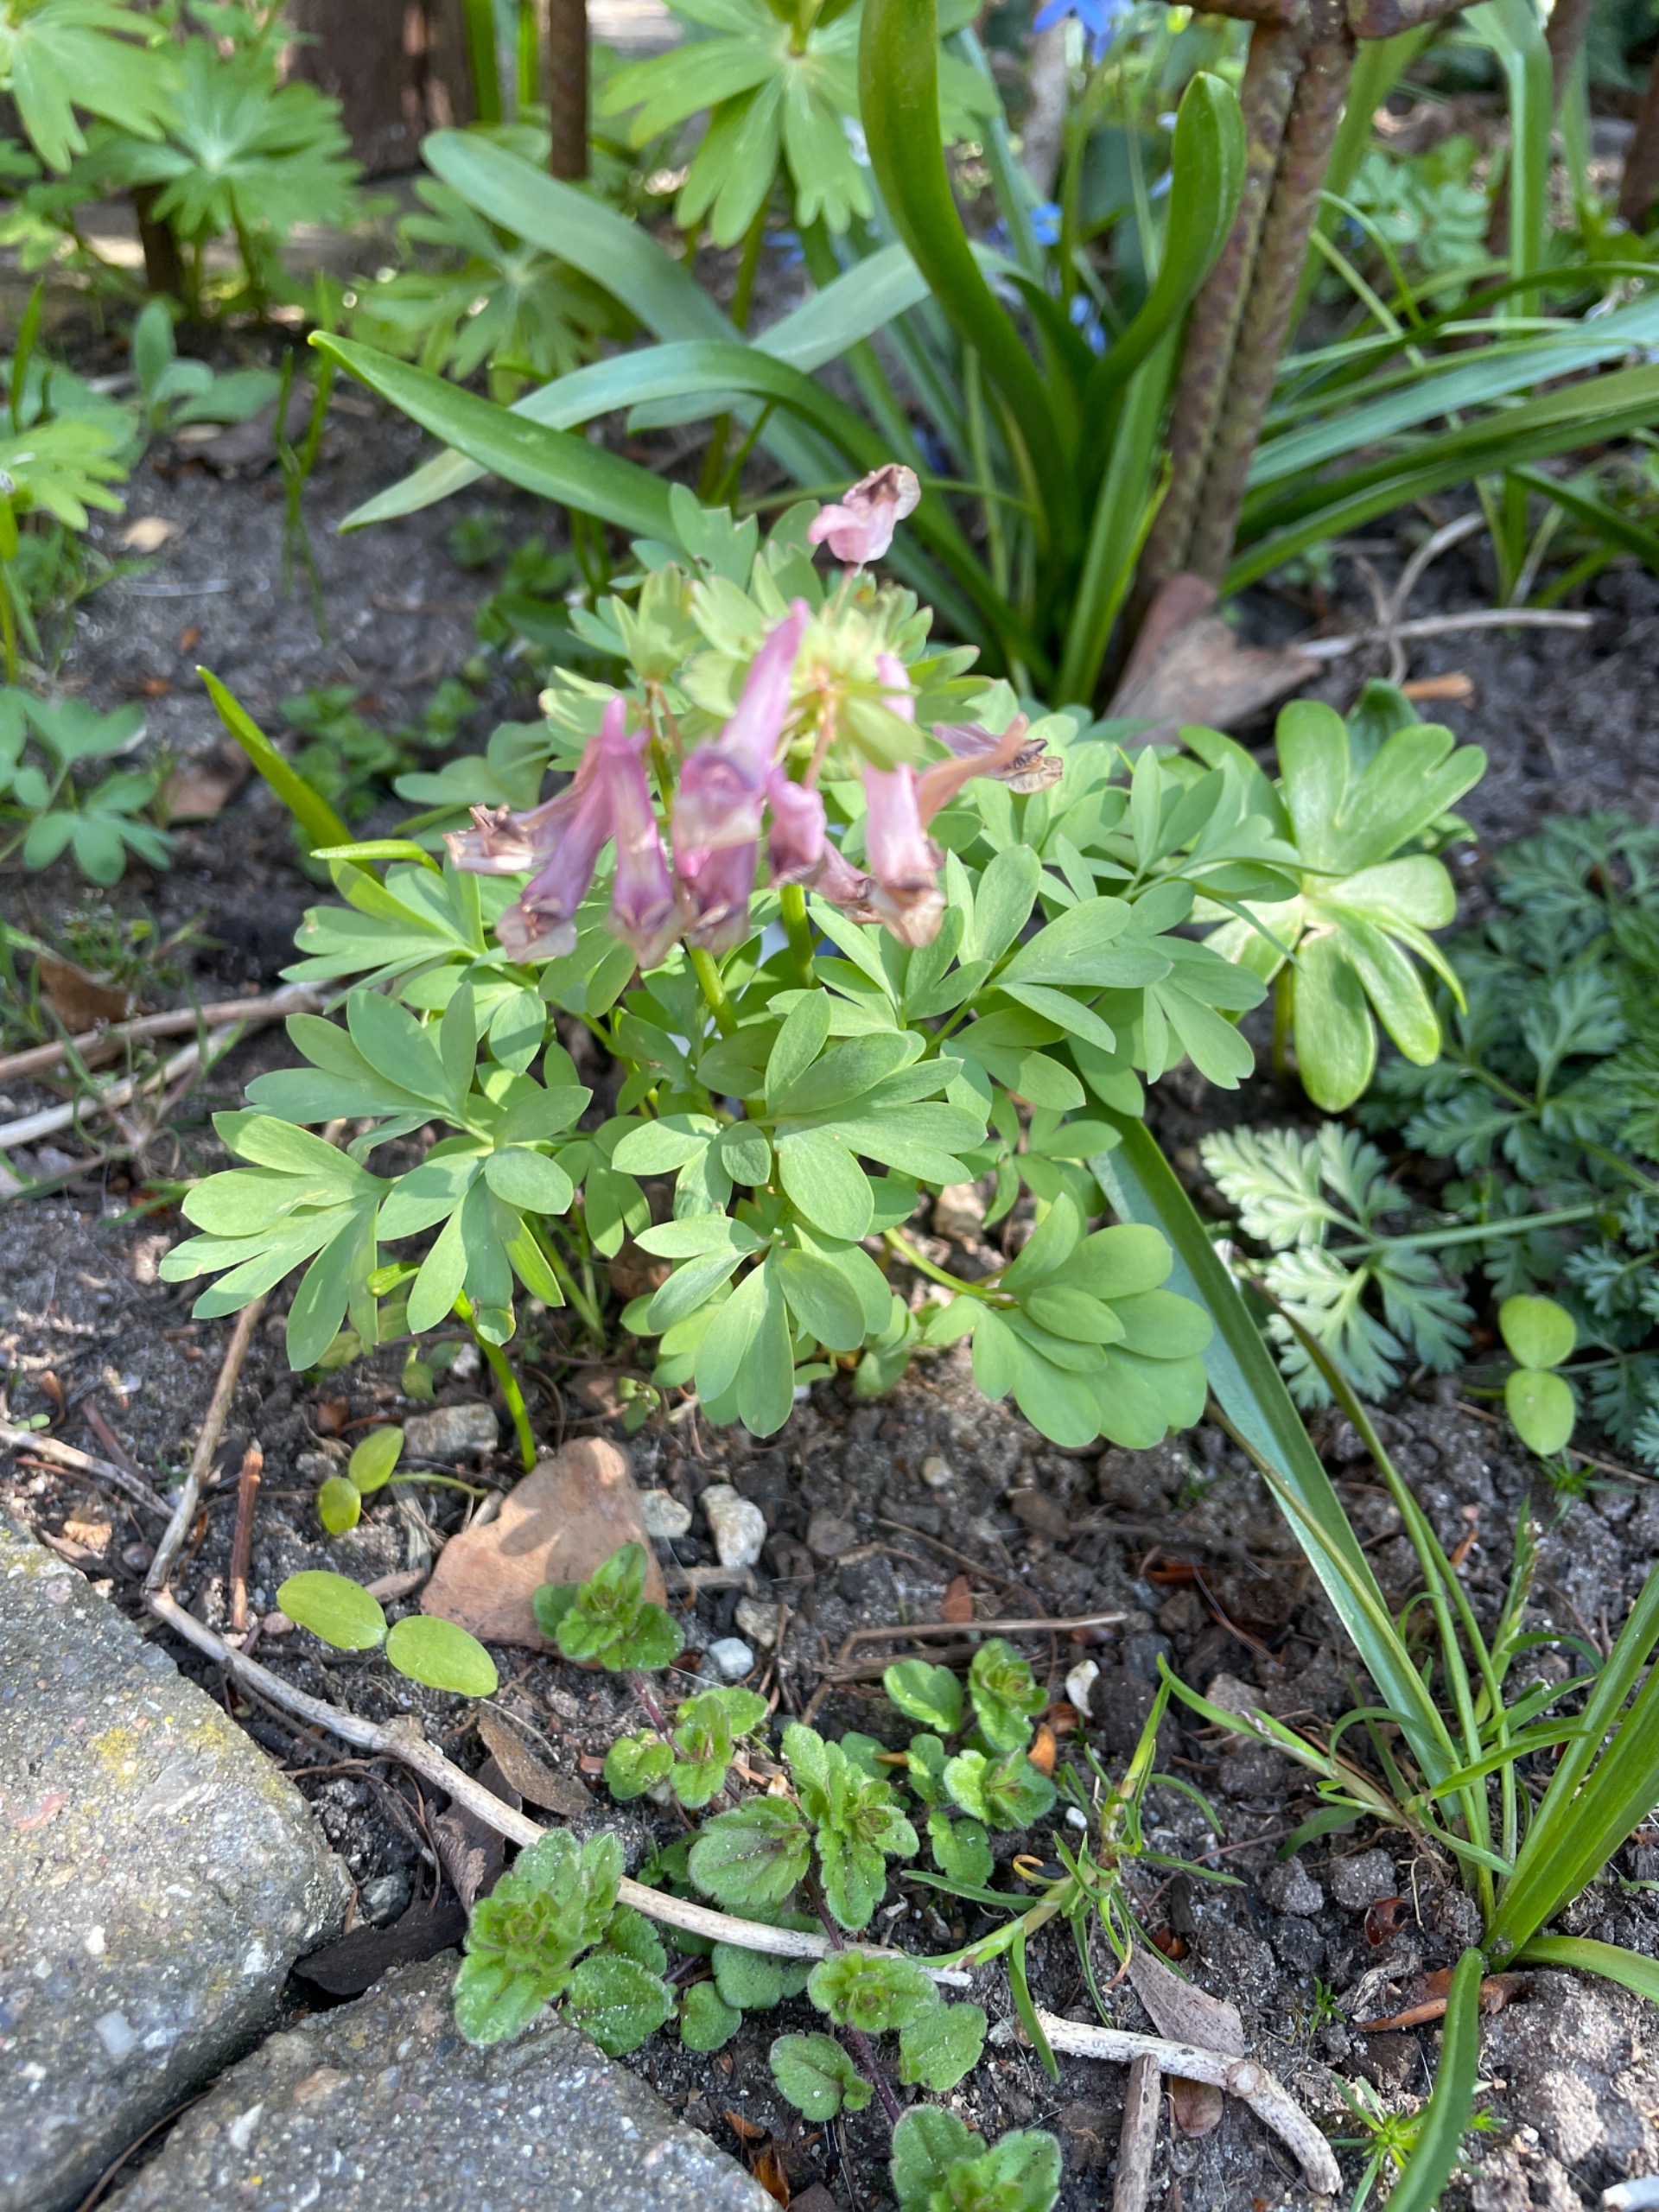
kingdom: Plantae
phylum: Tracheophyta
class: Magnoliopsida
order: Ranunculales
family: Papaveraceae
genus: Corydalis
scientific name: Corydalis solida
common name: Langstilket lærkespore
